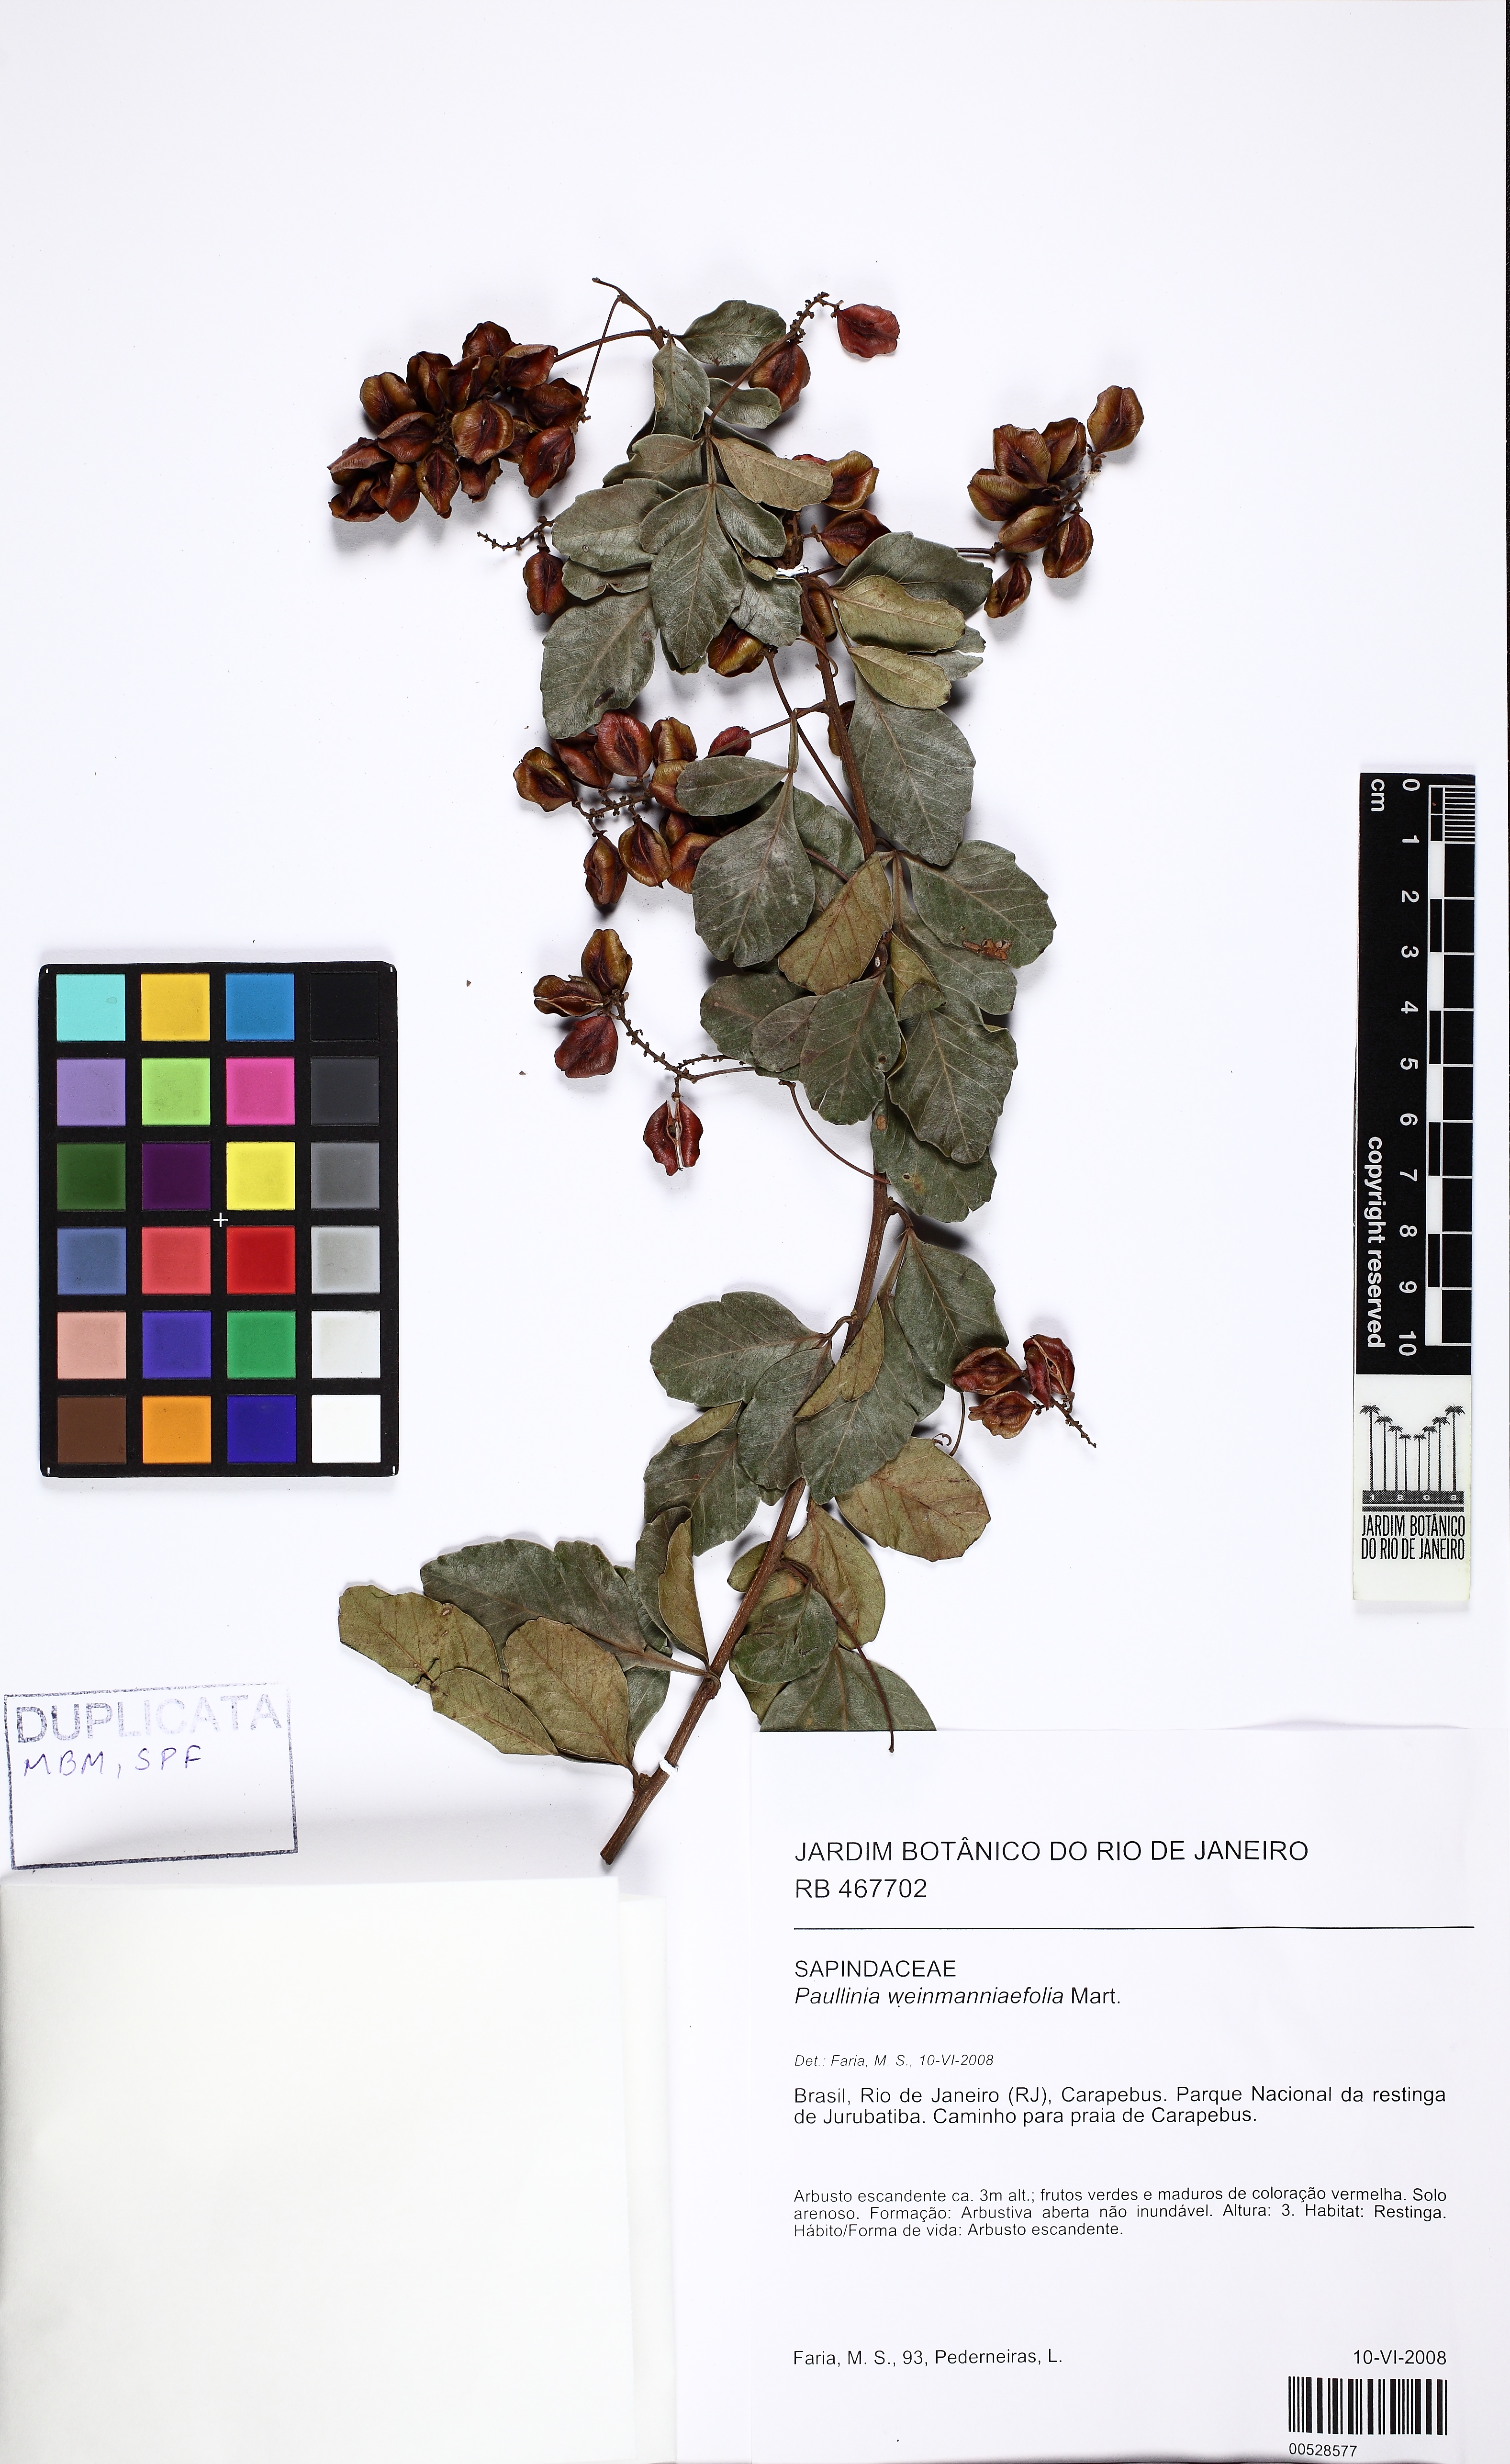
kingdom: Plantae
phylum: Tracheophyta
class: Magnoliopsida
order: Sapindales
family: Sapindaceae
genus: Paullinia
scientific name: Paullinia weinmanniifolia
